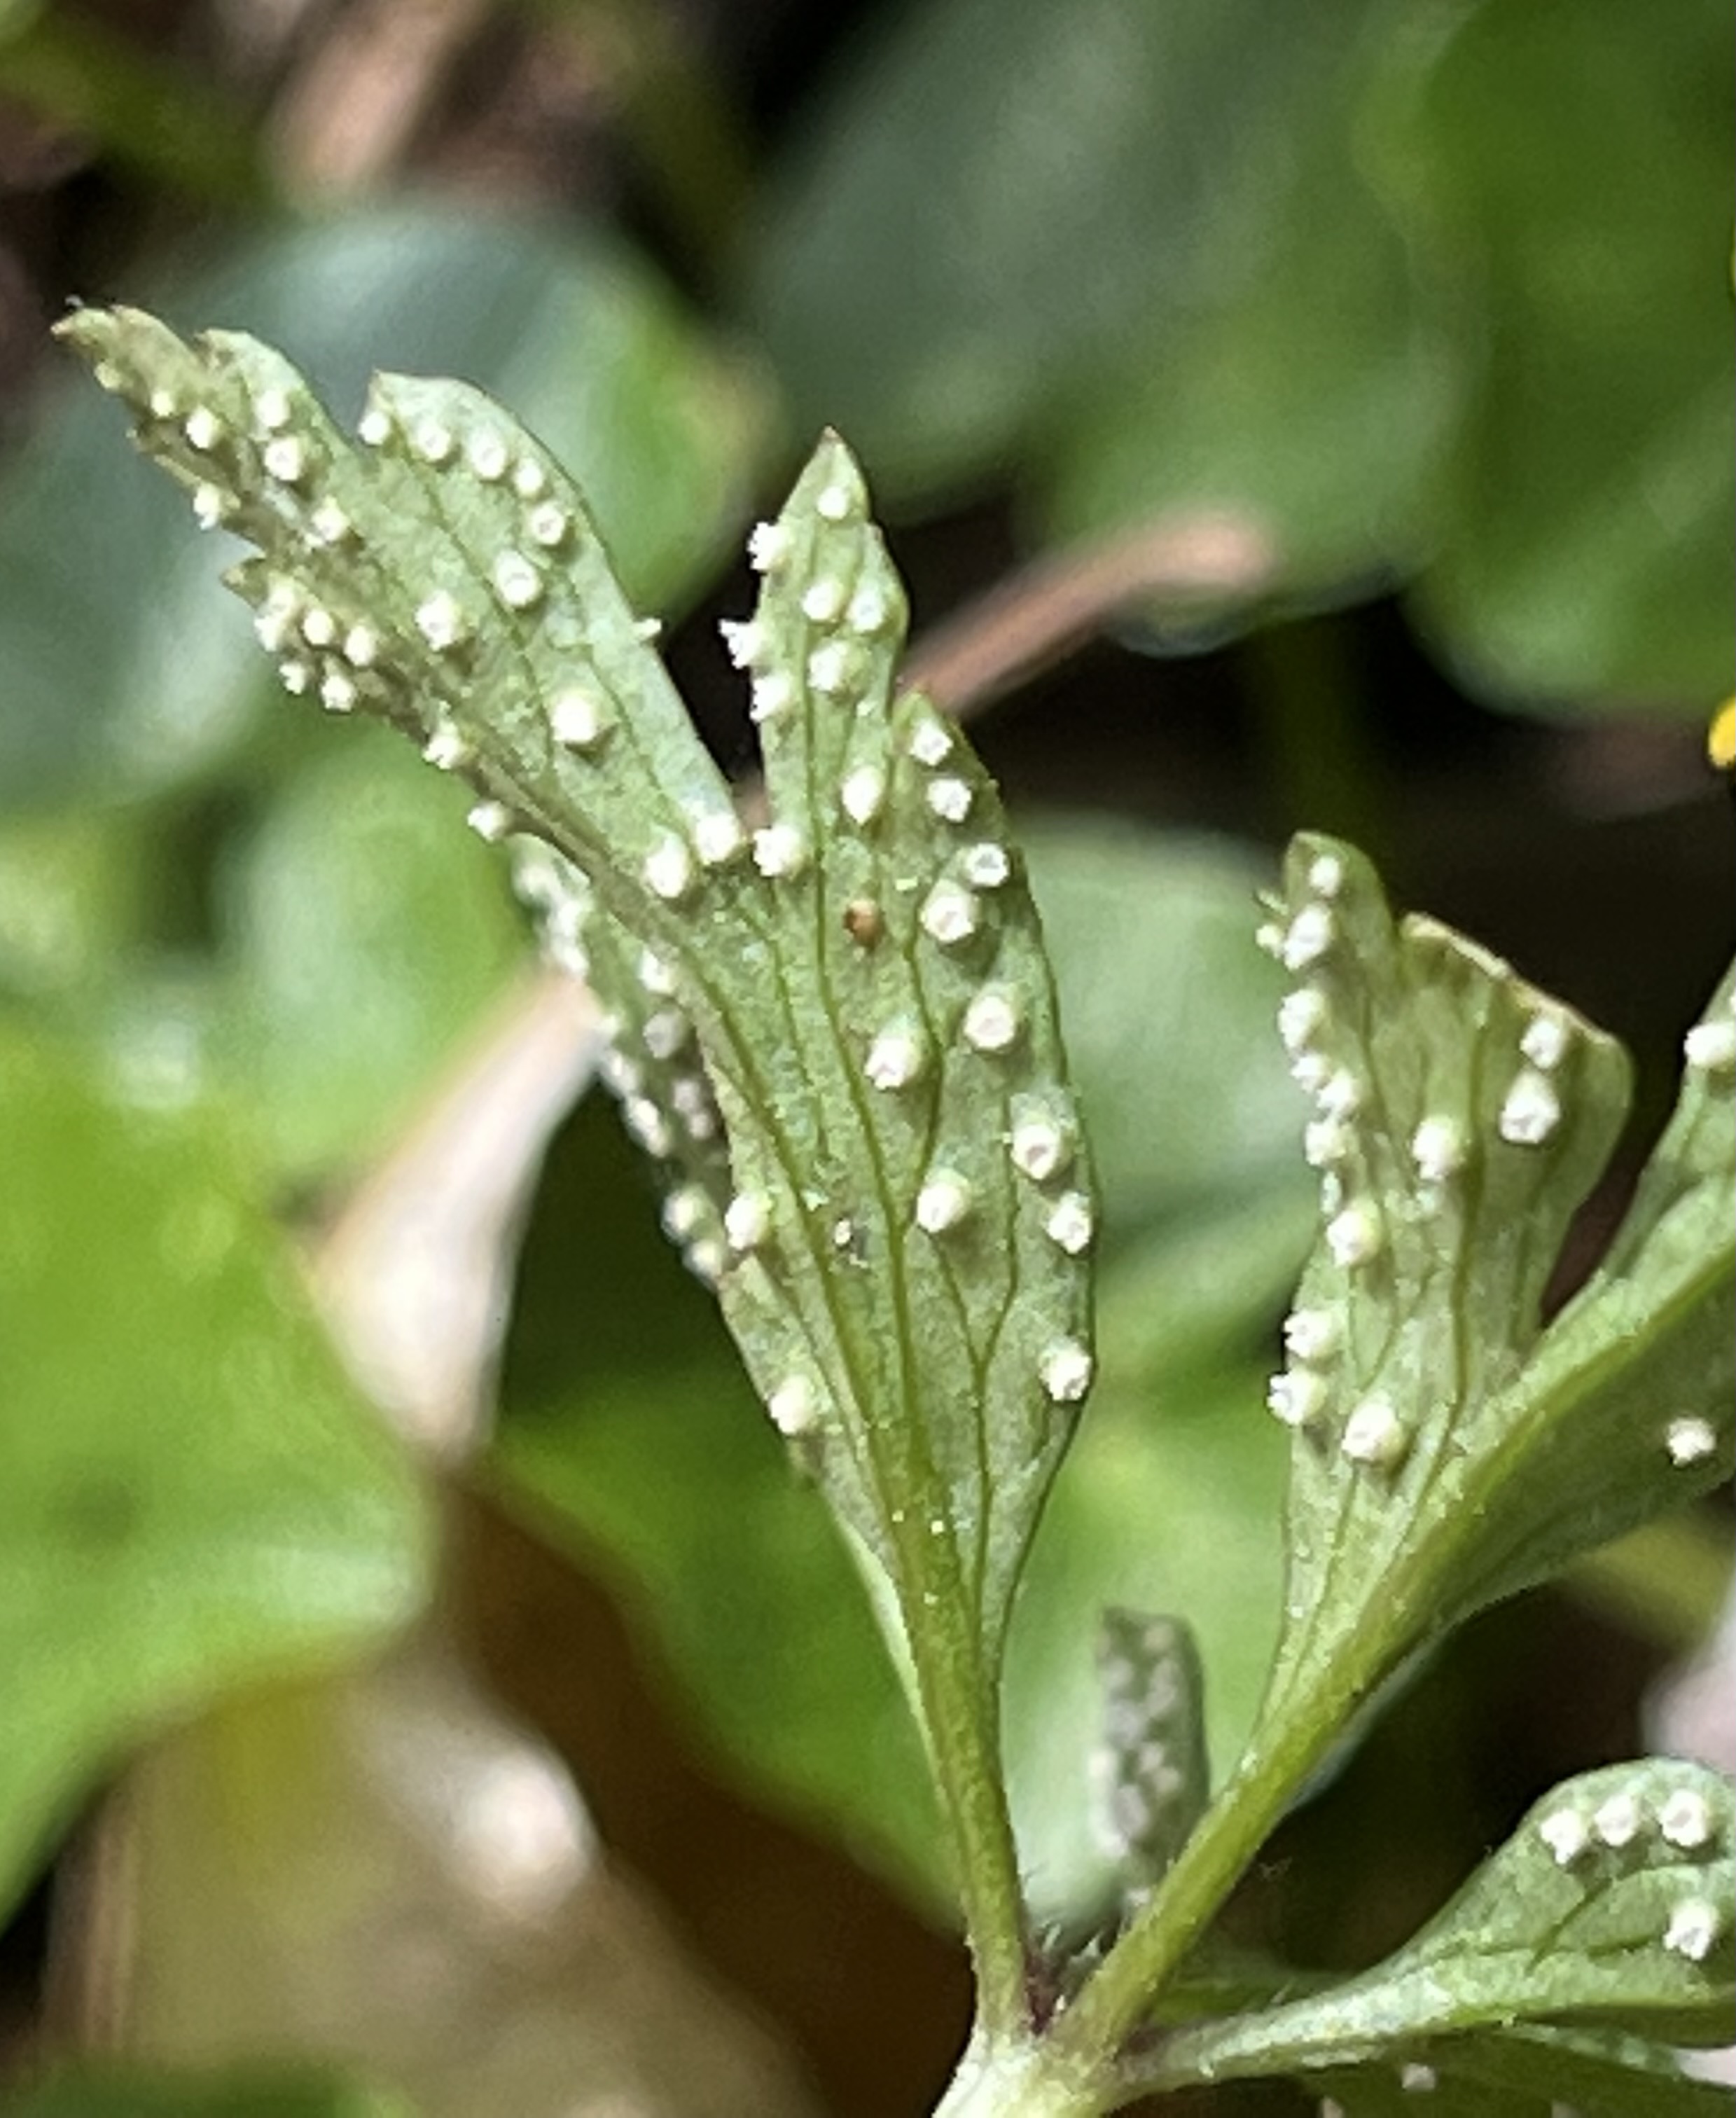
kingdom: Fungi
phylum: Basidiomycota
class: Pucciniomycetes
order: Pucciniales
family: Ochropsoraceae
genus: Ochropsora
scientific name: Ochropsora ariae
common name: anemone-okkerpletrust
